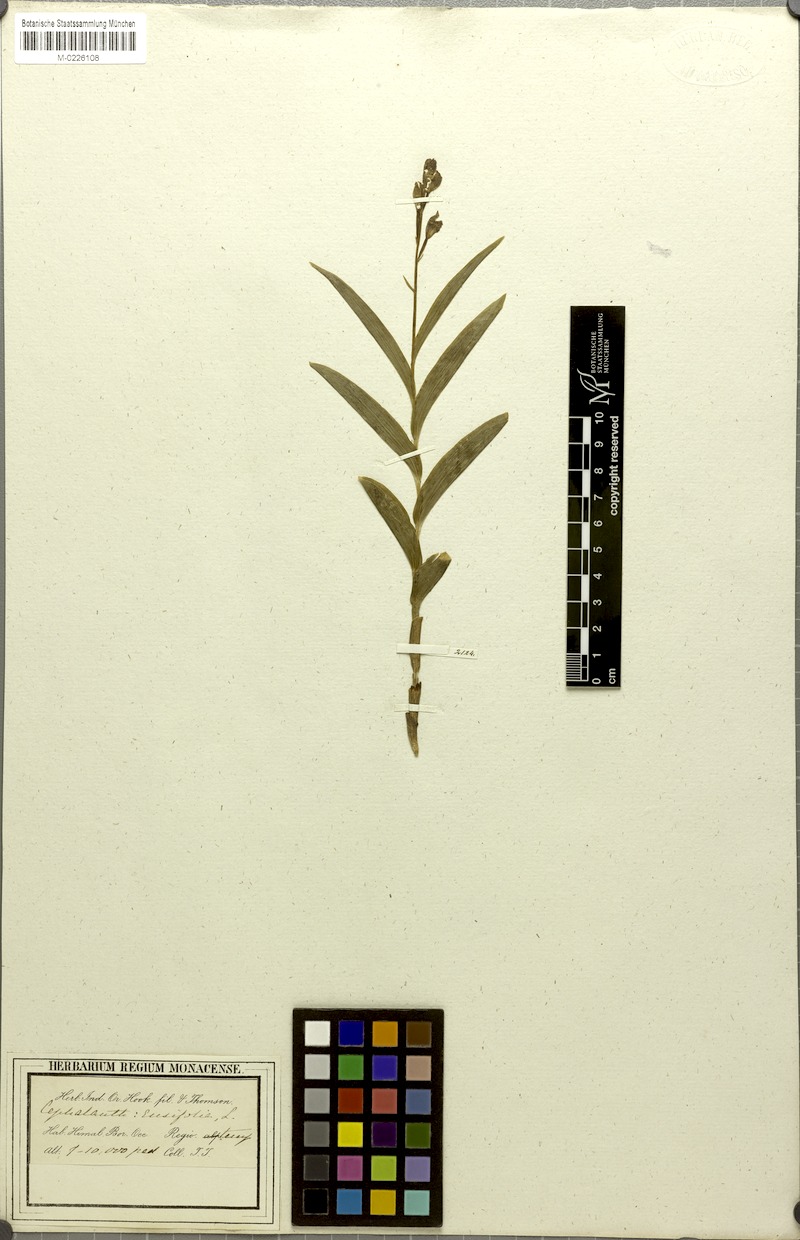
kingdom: Plantae
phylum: Tracheophyta
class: Liliopsida
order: Asparagales
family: Orchidaceae
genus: Cephalanthera
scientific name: Cephalanthera longifolia
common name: Narrow-leaved helleborine
